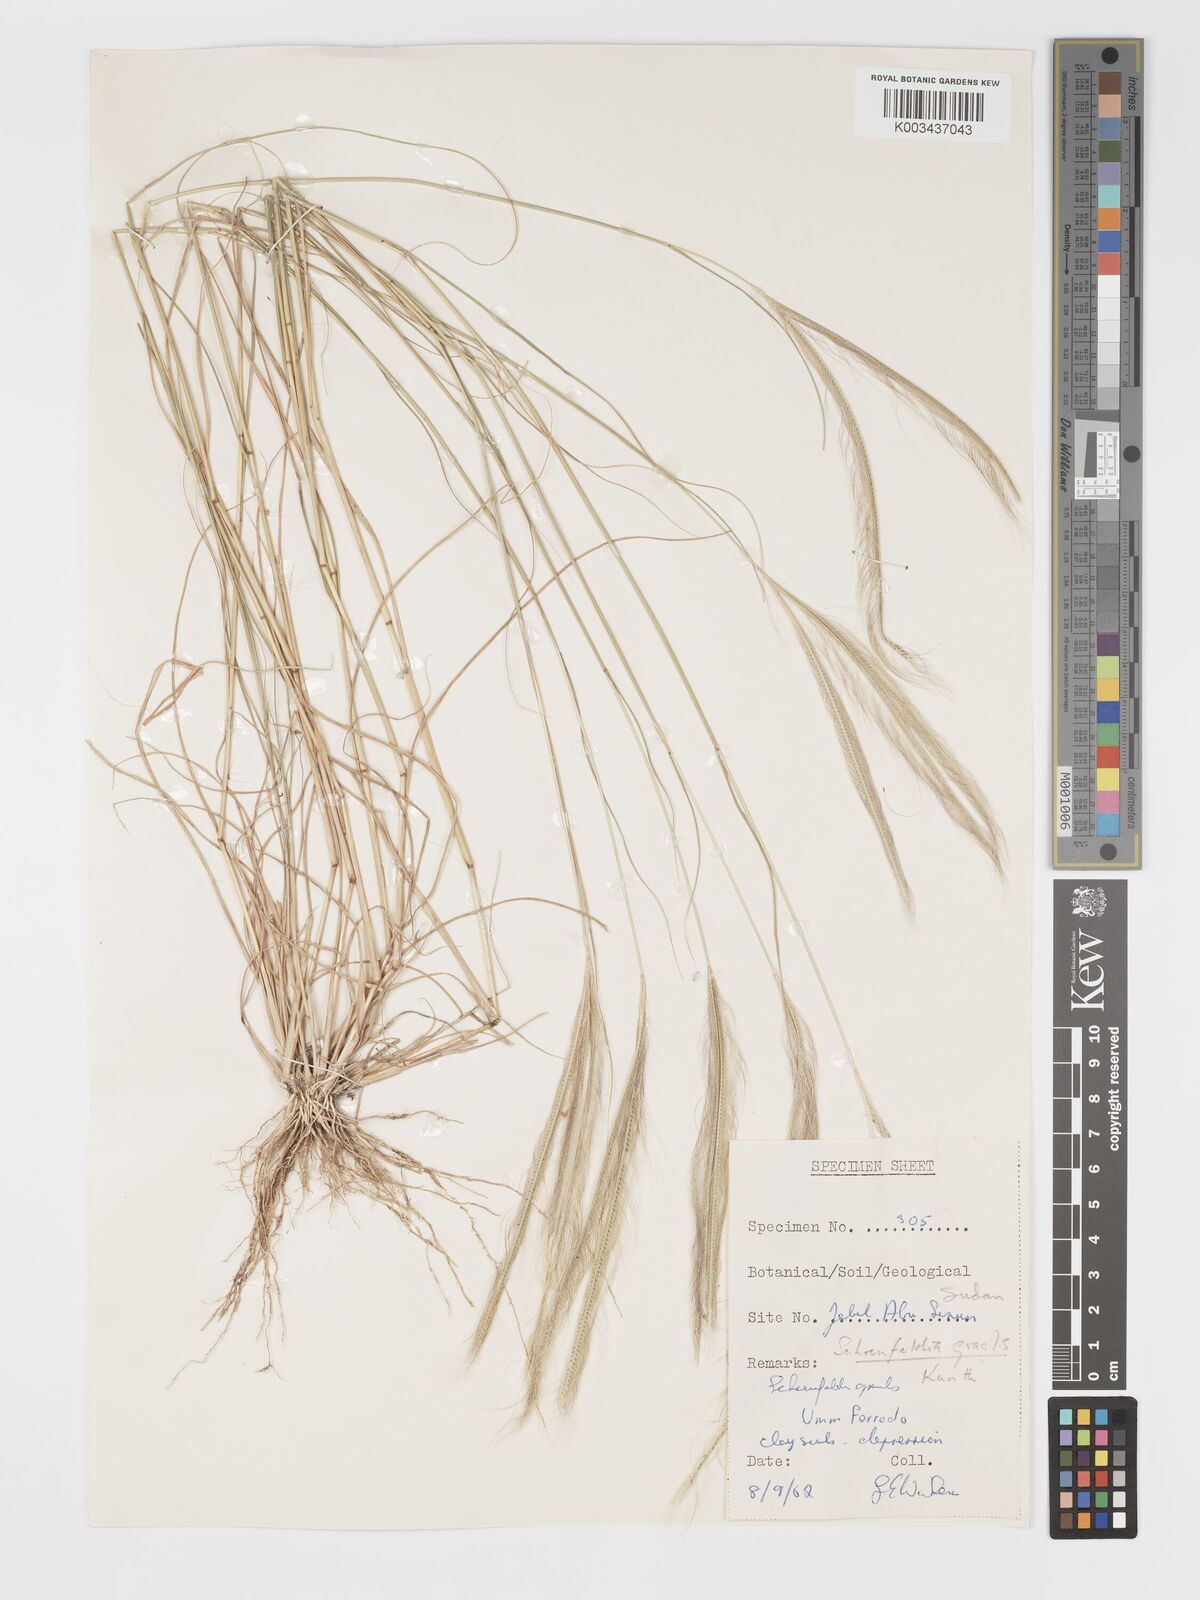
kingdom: Plantae
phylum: Tracheophyta
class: Liliopsida
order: Poales
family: Poaceae
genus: Schoenefeldia
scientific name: Schoenefeldia gracilis
